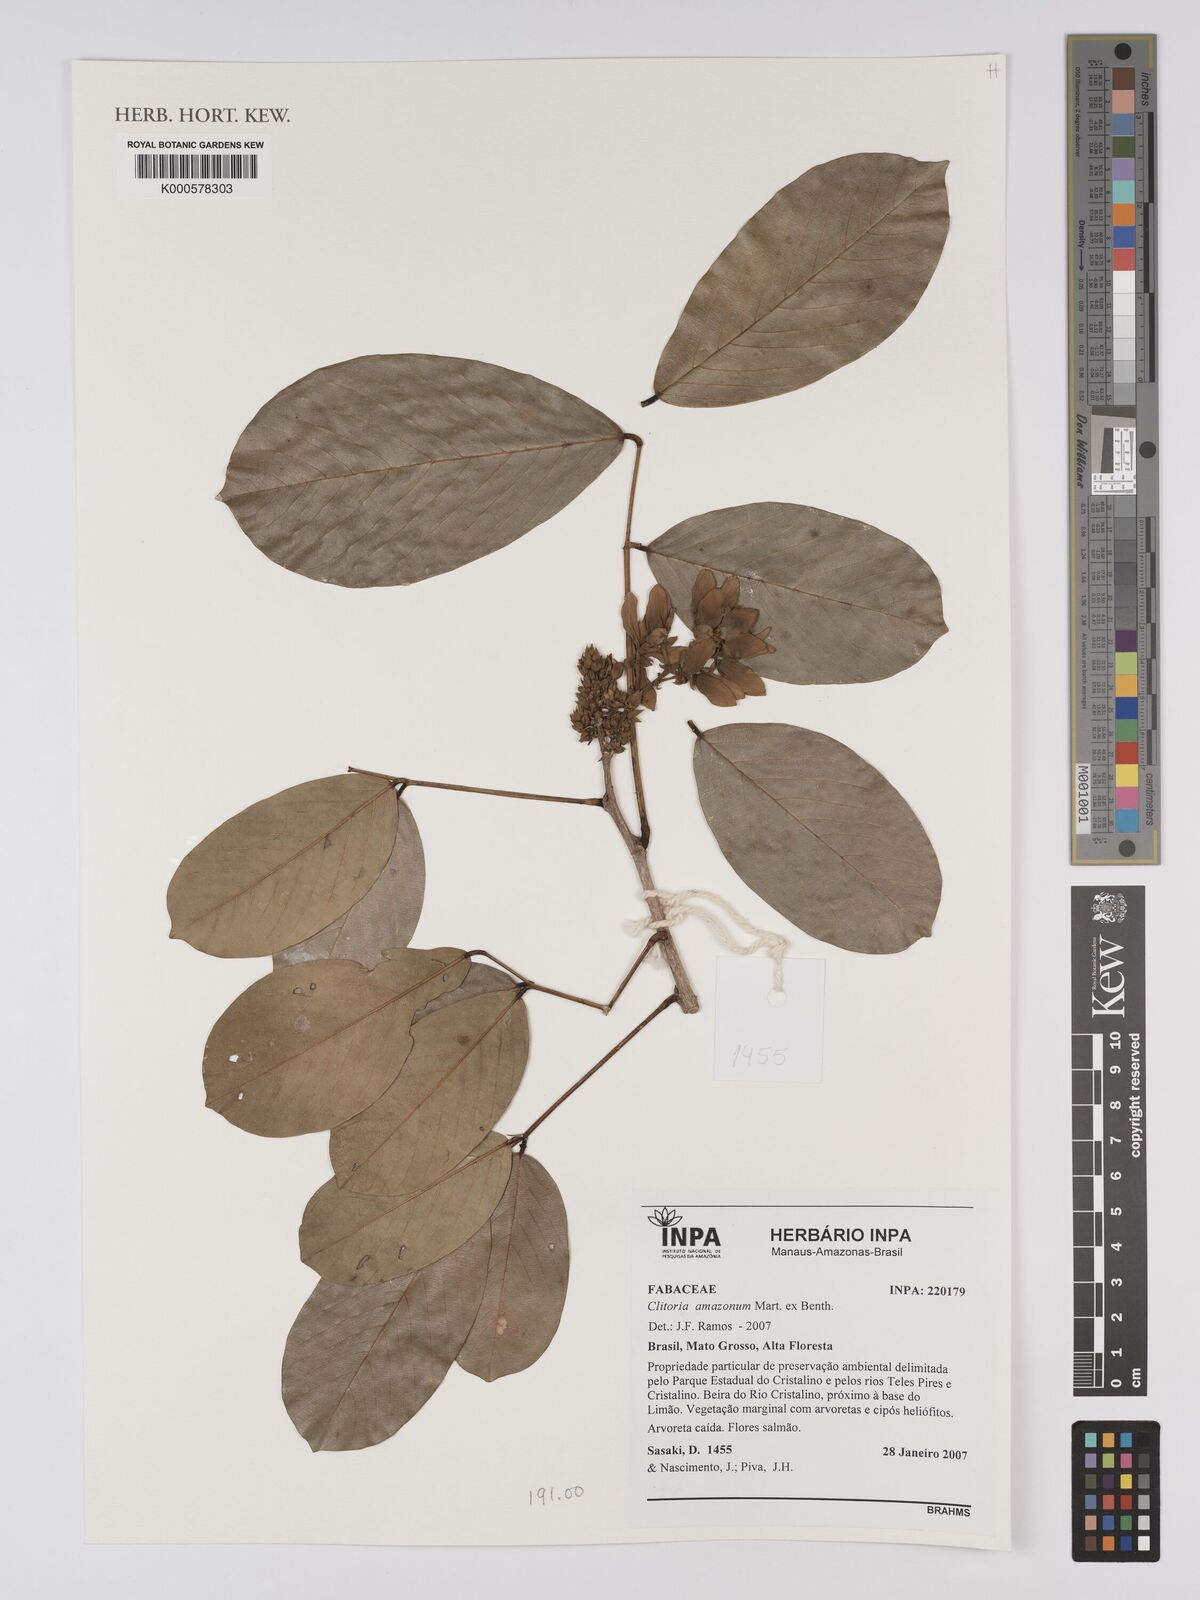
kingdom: Plantae
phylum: Tracheophyta
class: Magnoliopsida
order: Fabales
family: Fabaceae
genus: Clitoria
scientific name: Clitoria amazonum
